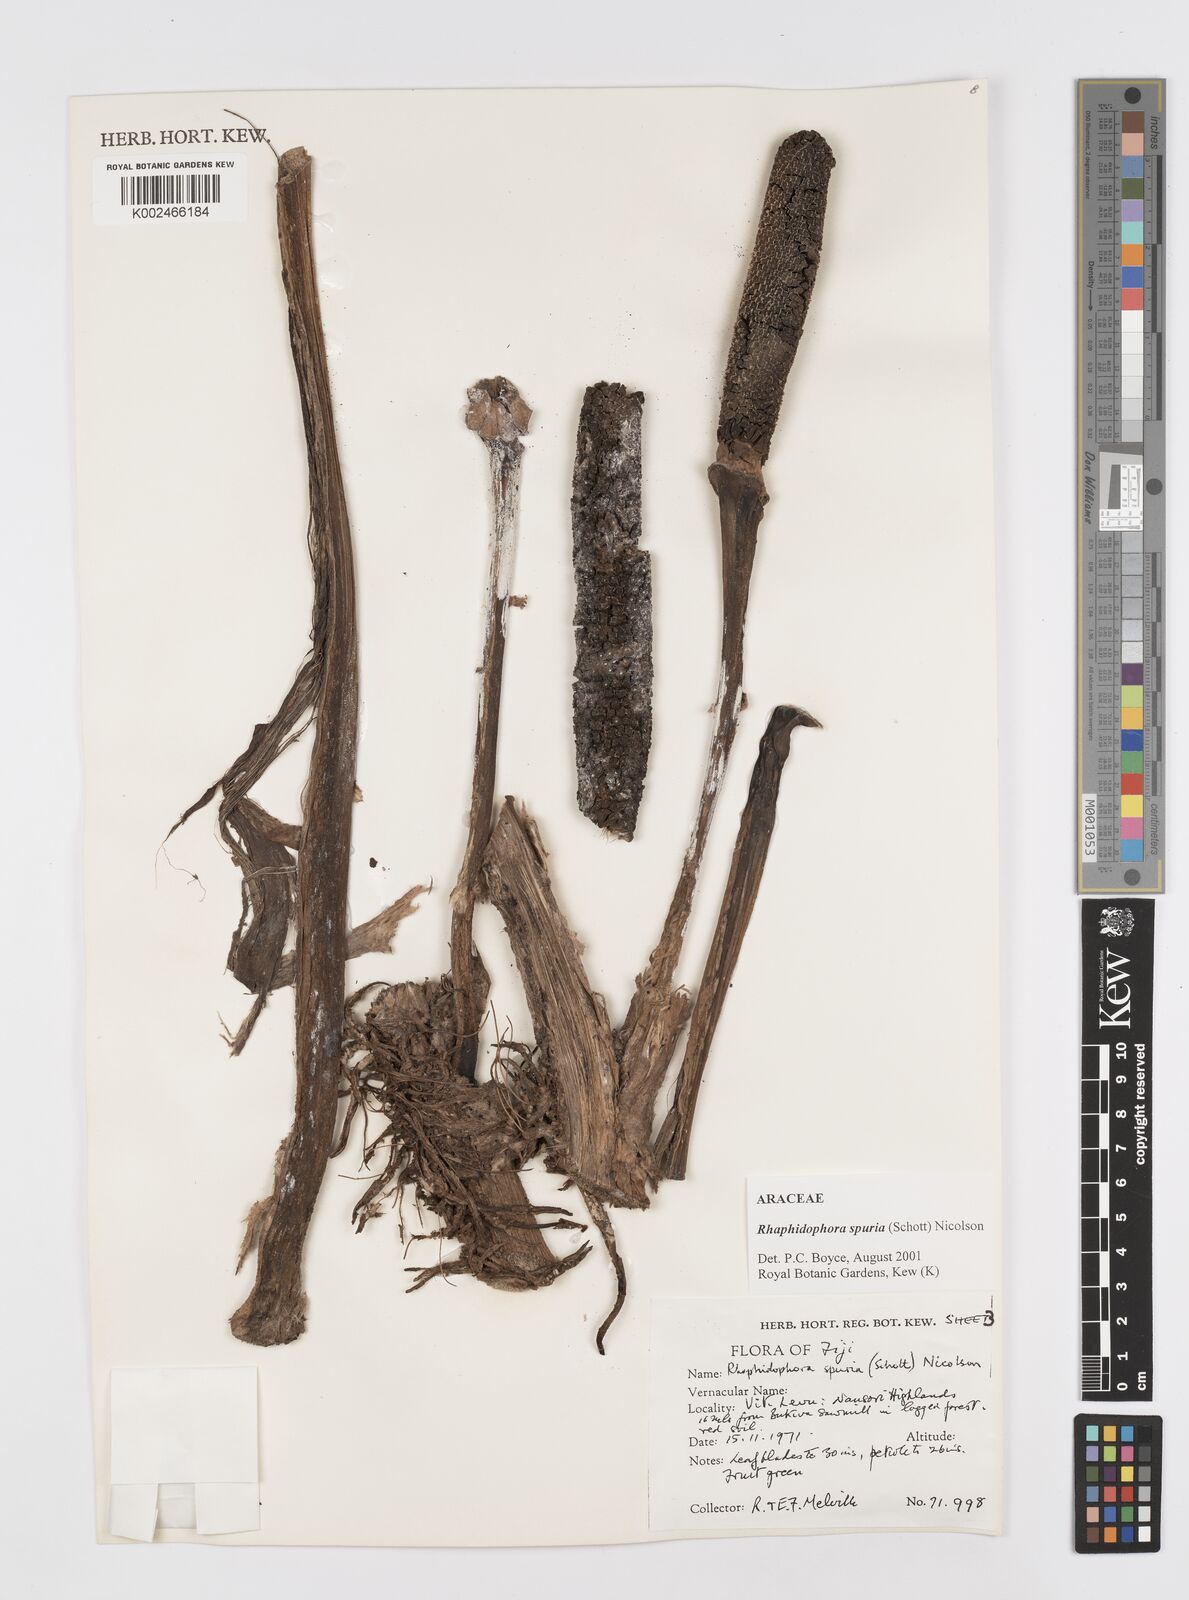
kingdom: Plantae
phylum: Tracheophyta
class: Liliopsida
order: Alismatales
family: Araceae
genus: Rhaphidophora
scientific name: Rhaphidophora spuria
